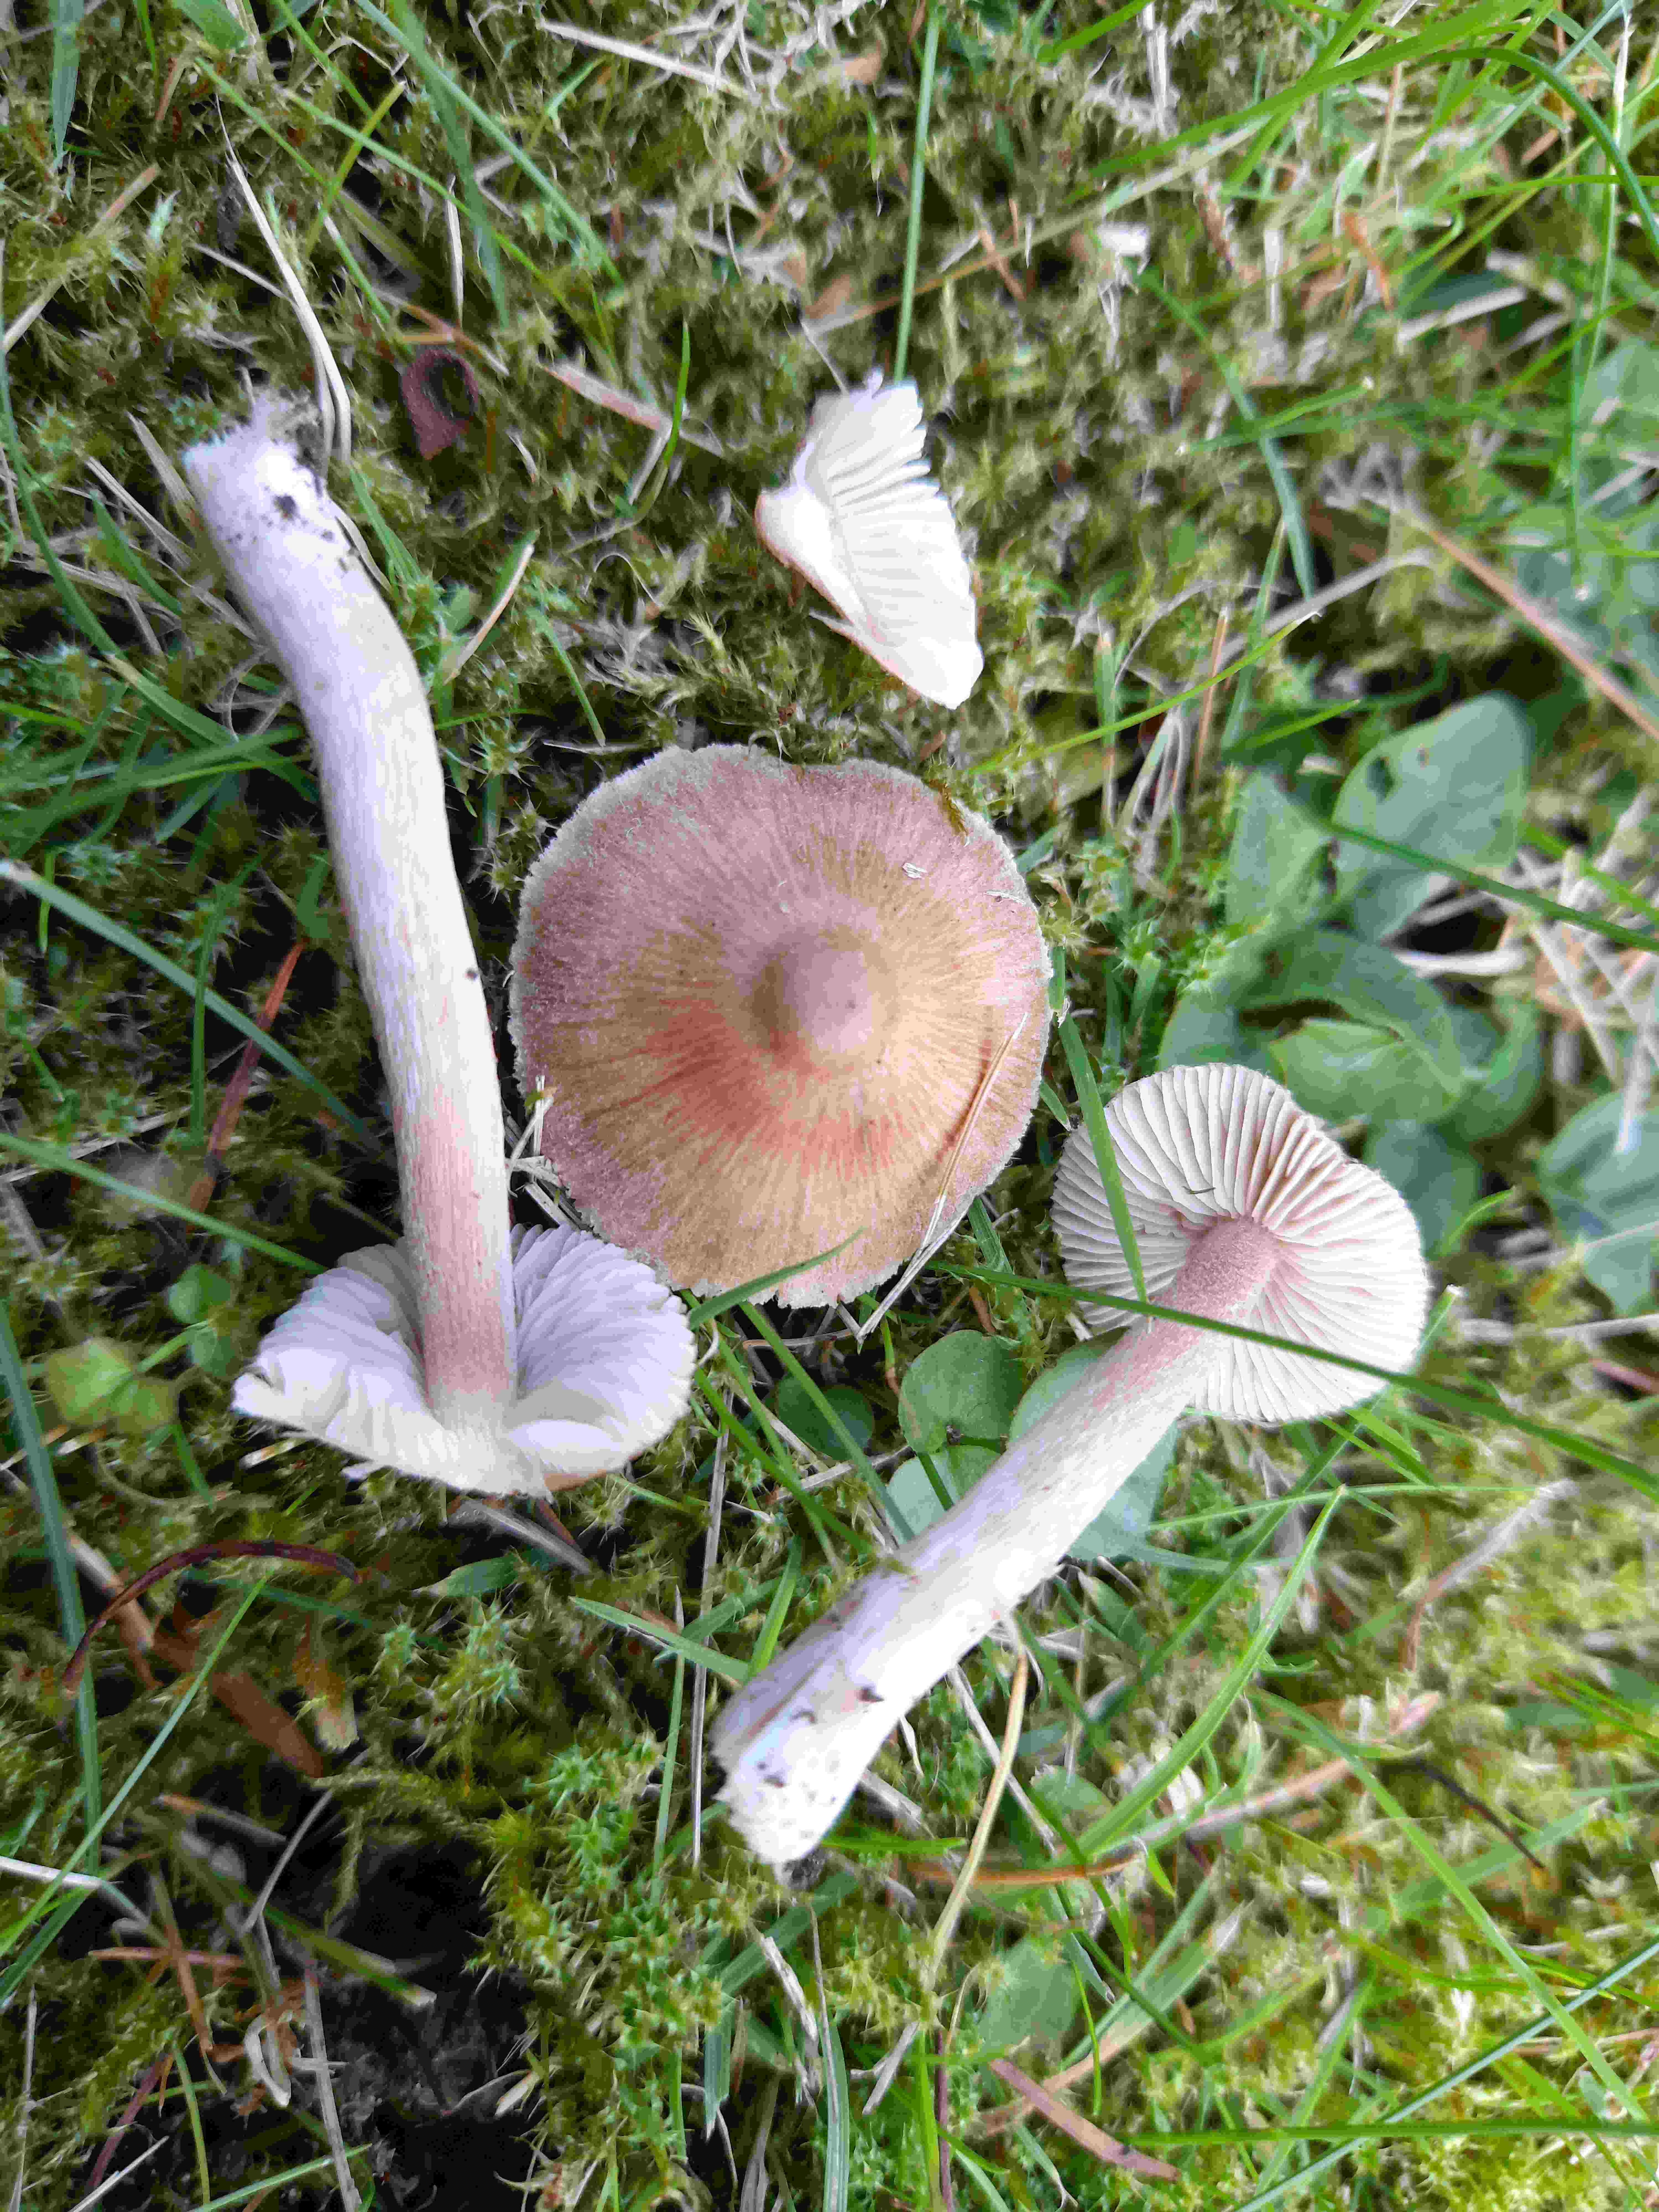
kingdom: Fungi
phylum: Basidiomycota
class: Agaricomycetes
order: Agaricales
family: Inocybaceae
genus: Inocybe
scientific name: Inocybe
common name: trævlhat
